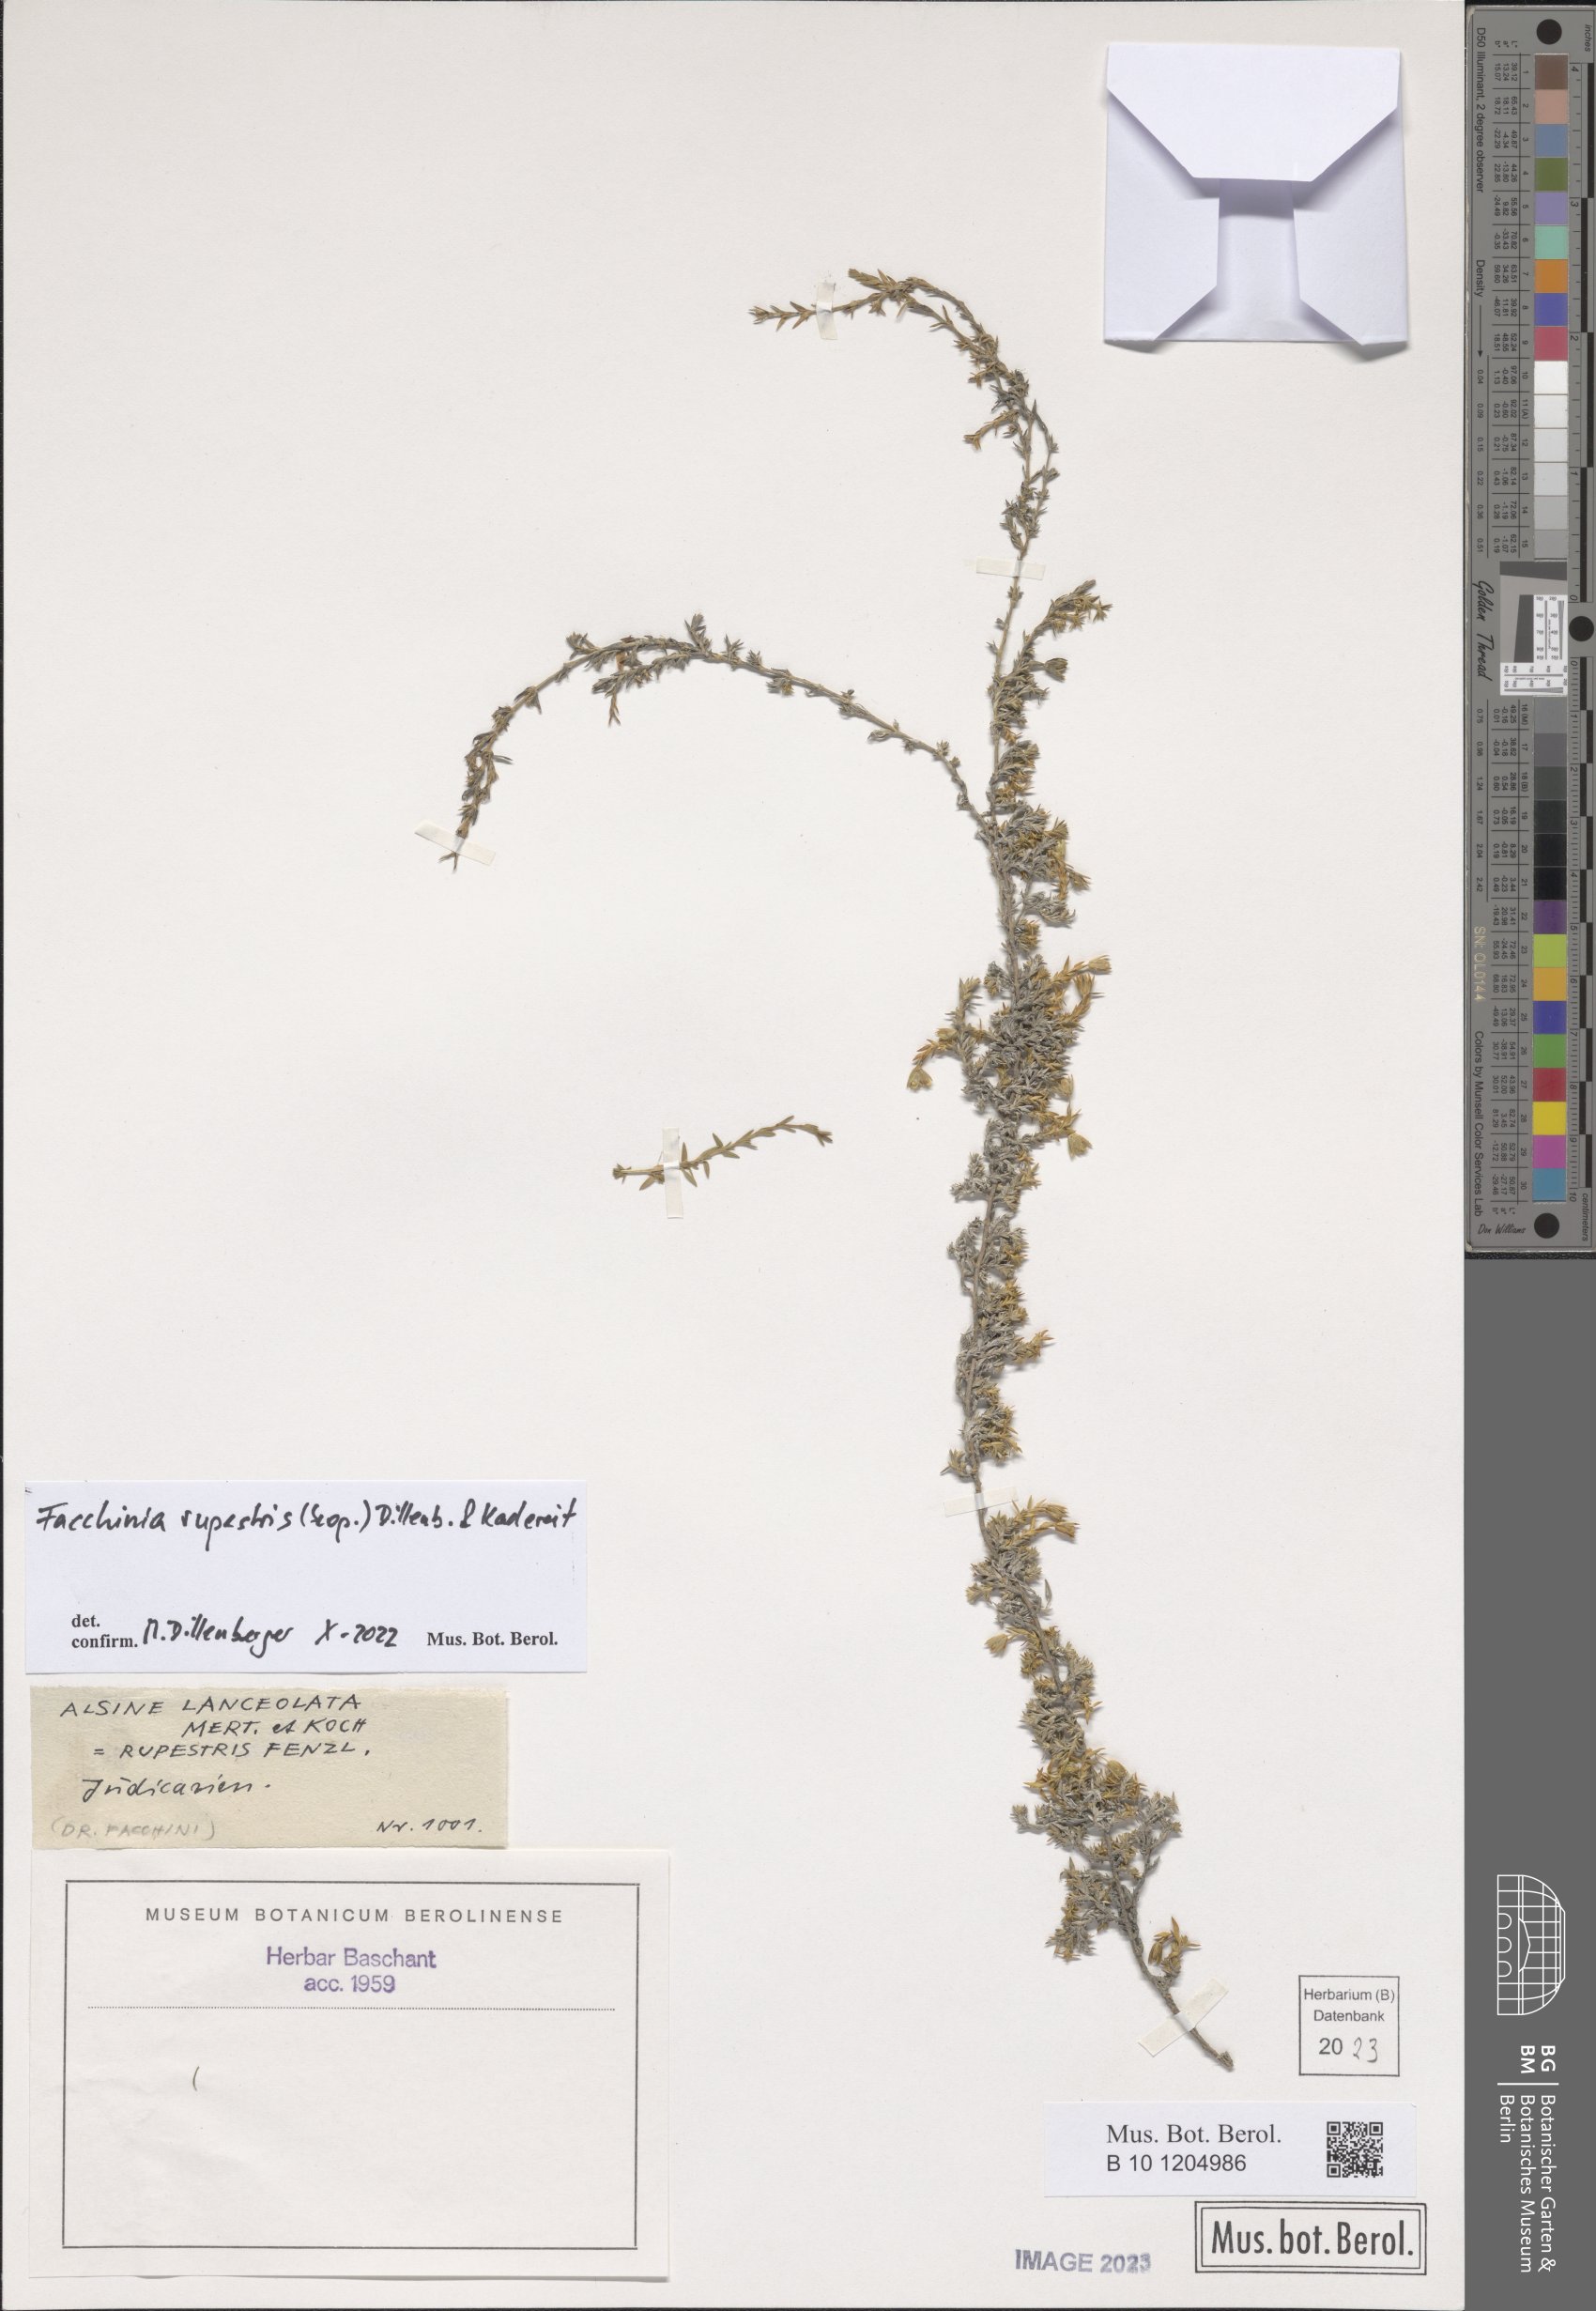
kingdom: Plantae
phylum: Tracheophyta
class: Magnoliopsida
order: Caryophyllales
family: Caryophyllaceae
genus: Facchinia
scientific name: Facchinia rupestris
